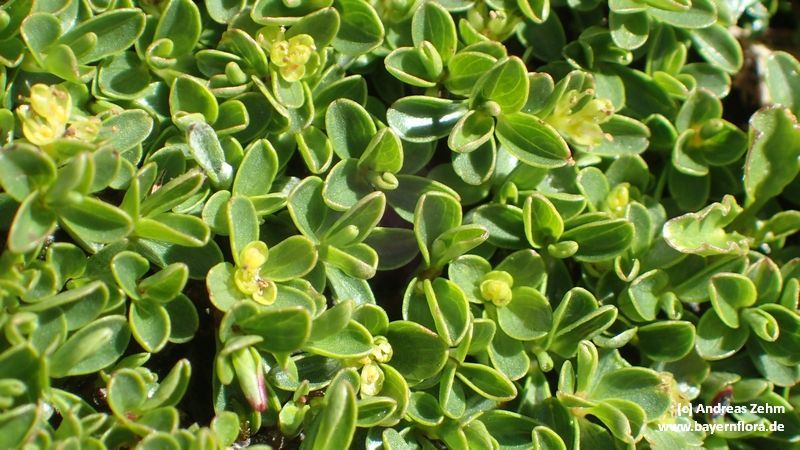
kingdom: Plantae
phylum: Tracheophyta
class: Magnoliopsida
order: Malpighiales
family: Salicaceae
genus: Salix
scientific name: Salix serpillifolia
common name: Thyme-leaf willow
